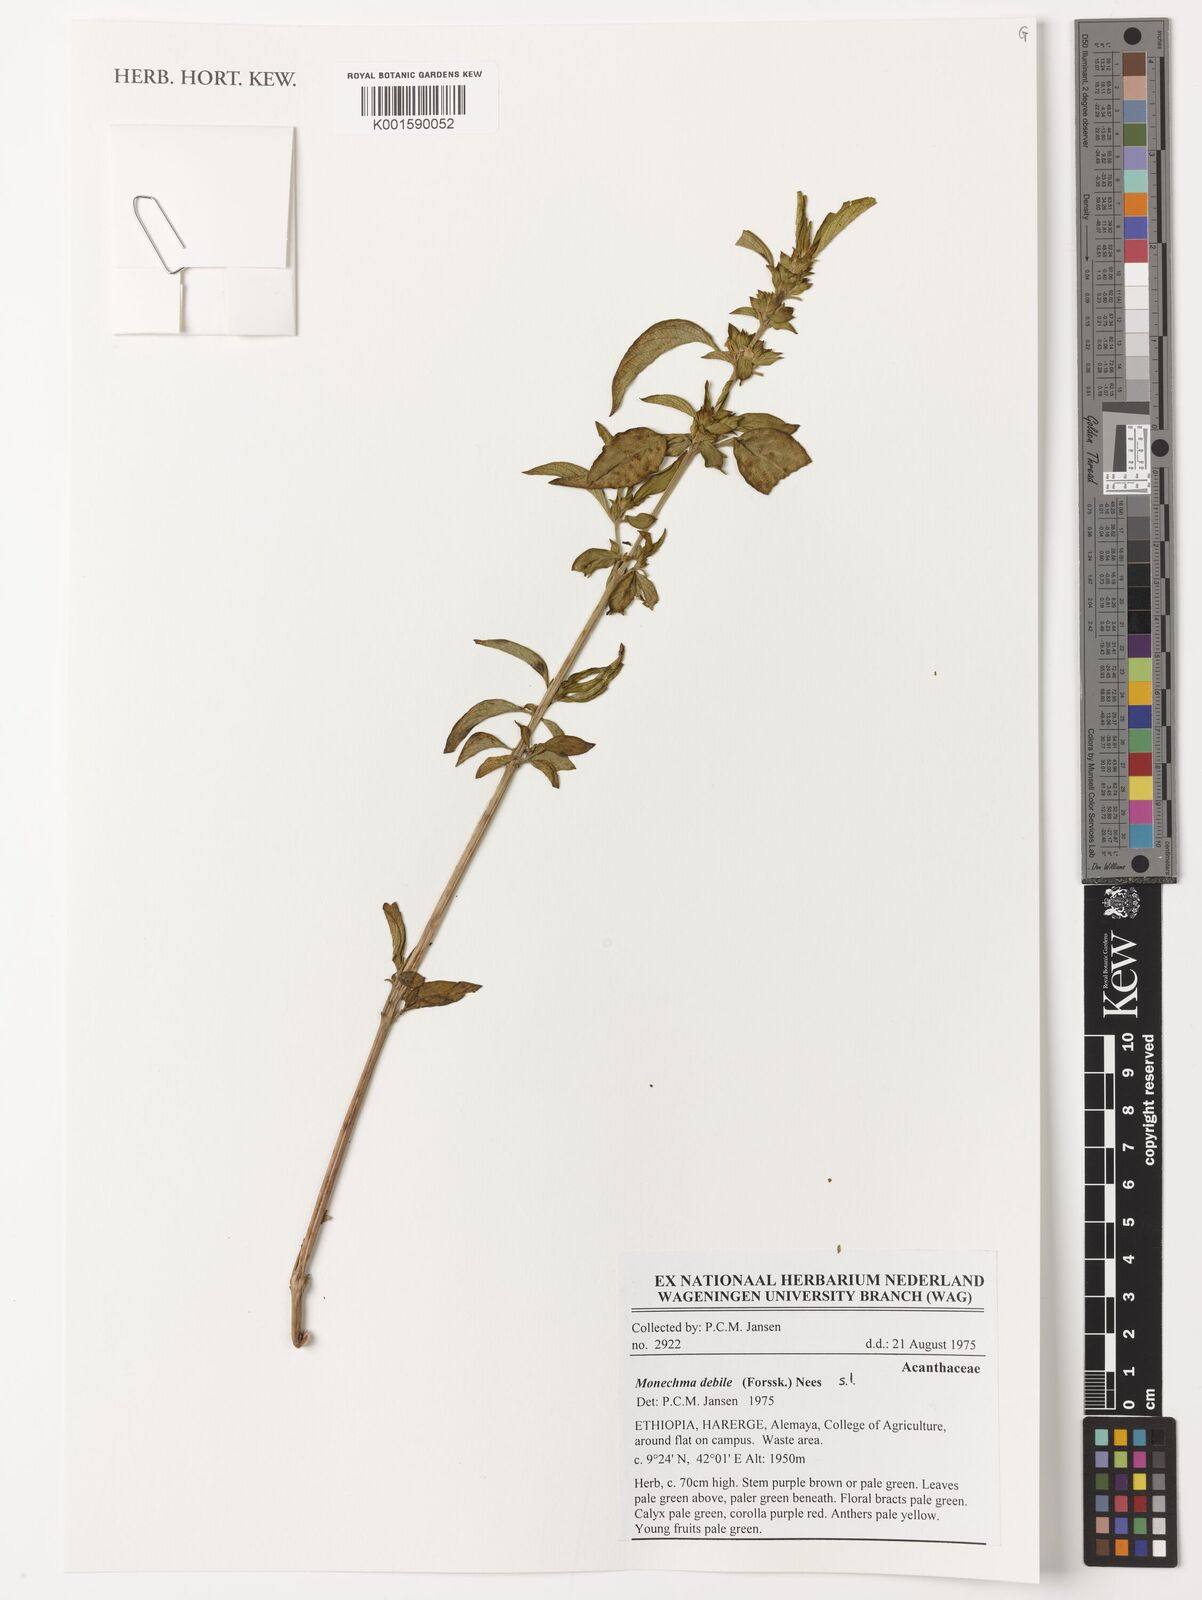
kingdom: Plantae
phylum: Tracheophyta
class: Magnoliopsida
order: Lamiales
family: Acanthaceae
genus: Monechma
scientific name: Monechma debile
